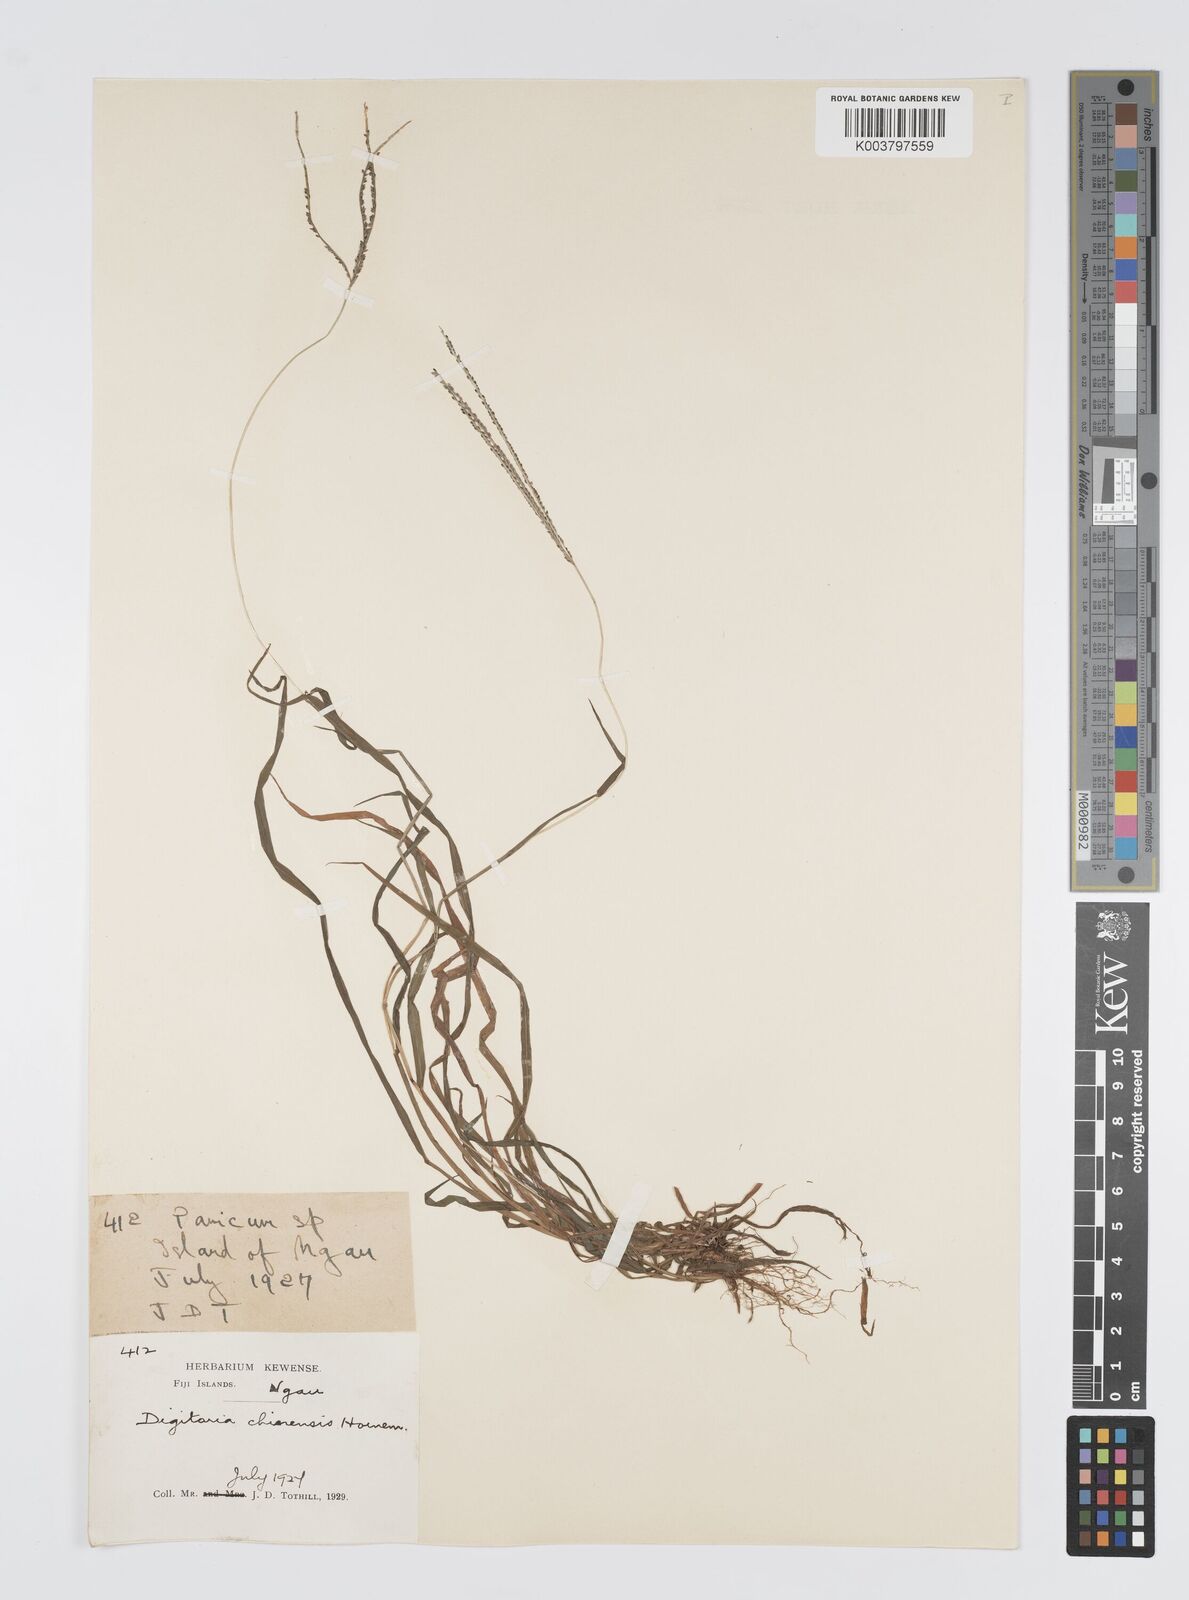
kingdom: Plantae
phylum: Tracheophyta
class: Liliopsida
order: Poales
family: Poaceae
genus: Digitaria
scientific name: Digitaria violascens
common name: Violet crabgrass
